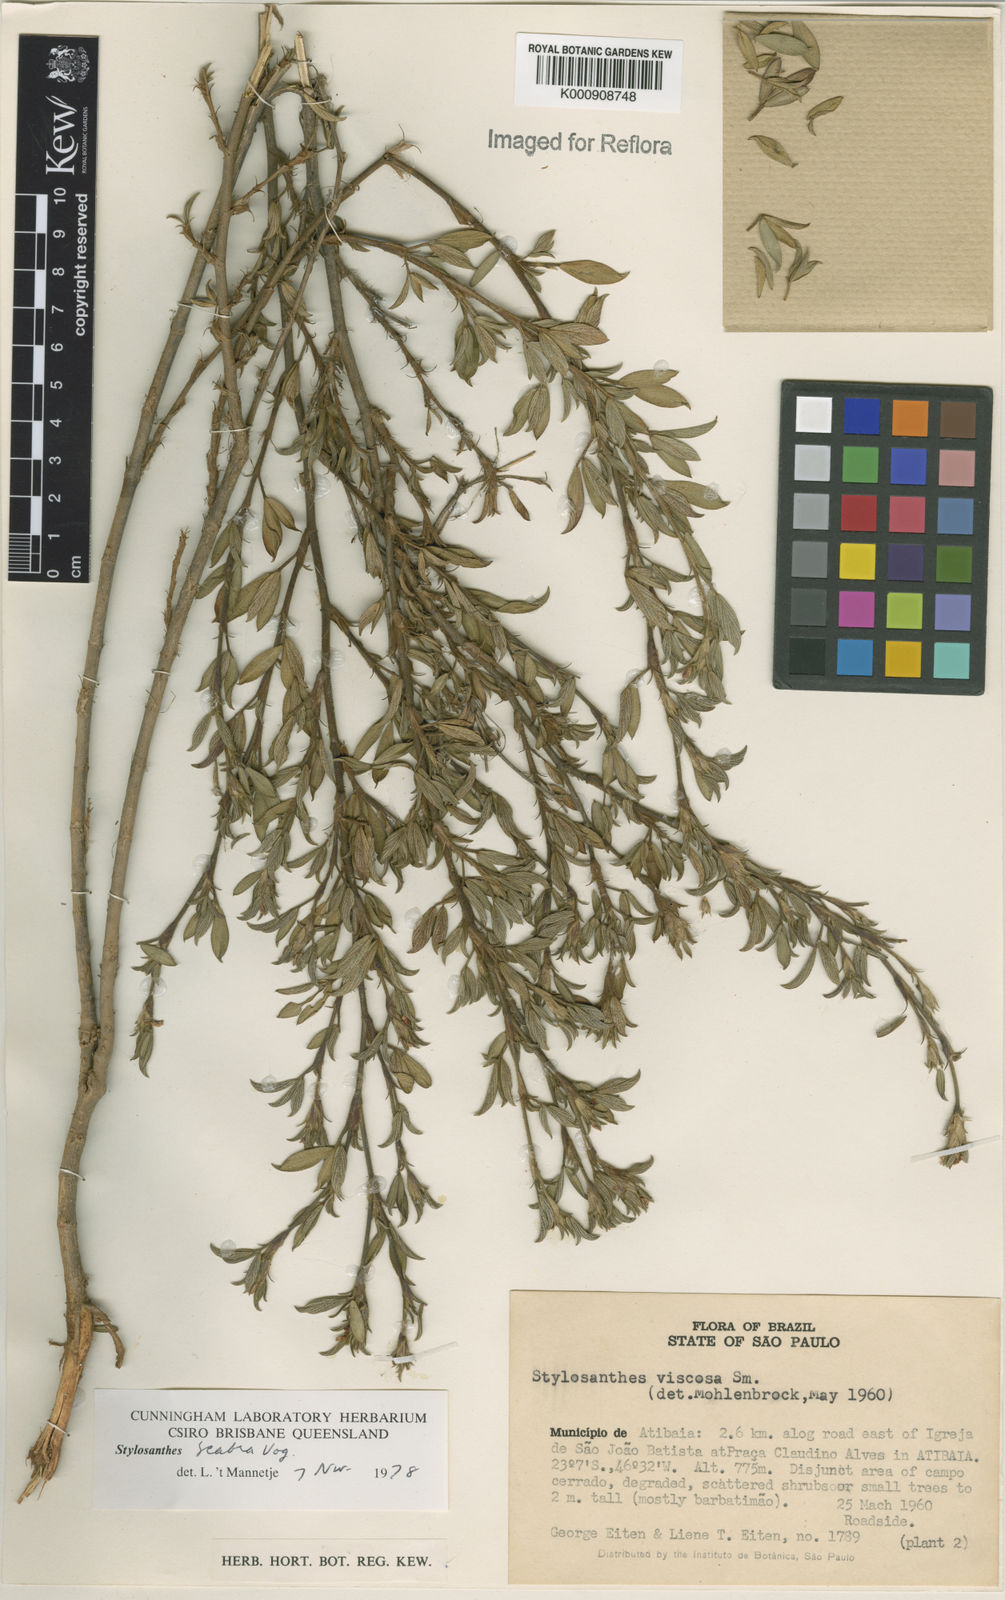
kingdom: Plantae
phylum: Tracheophyta
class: Magnoliopsida
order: Fabales
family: Fabaceae
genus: Stylosanthes
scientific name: Stylosanthes scabra
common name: Pencilflower
